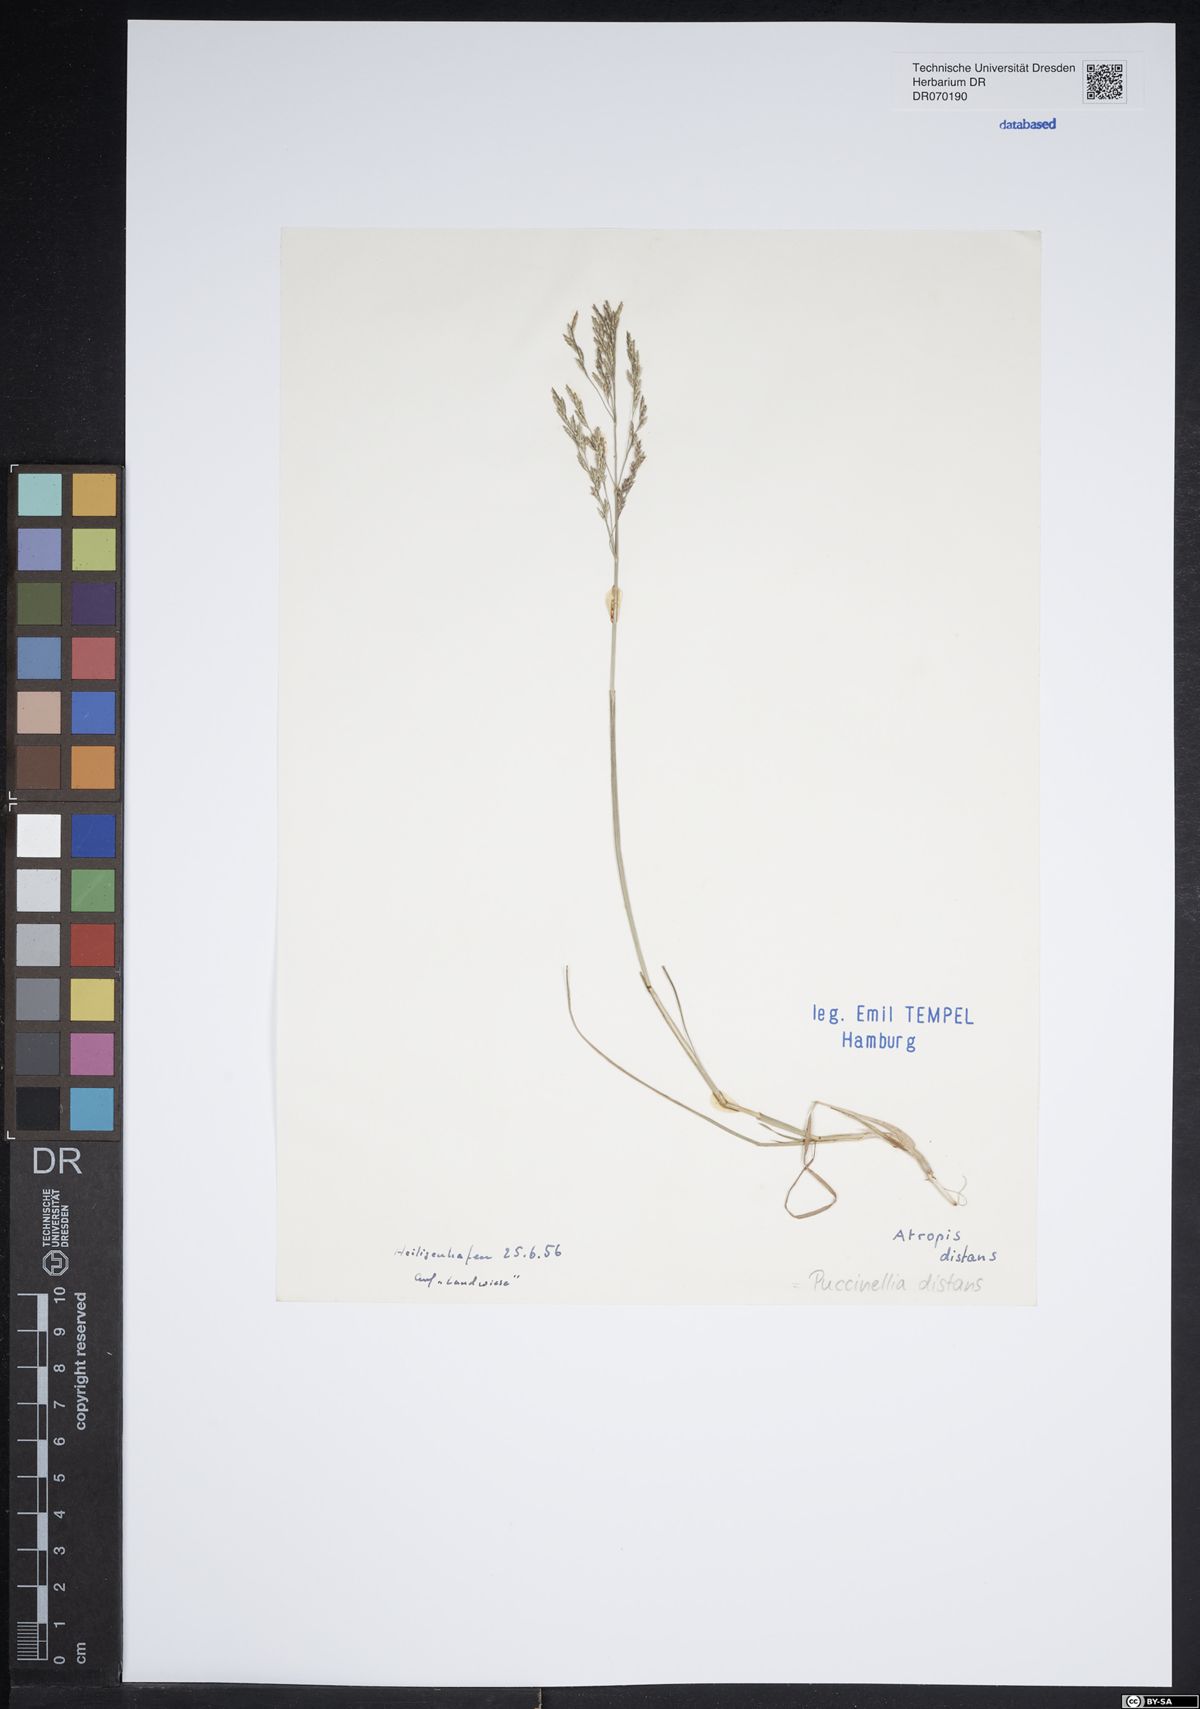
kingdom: Plantae
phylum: Tracheophyta
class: Liliopsida
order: Poales
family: Poaceae
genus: Puccinellia
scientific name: Puccinellia distans
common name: Weeping alkaligrass
